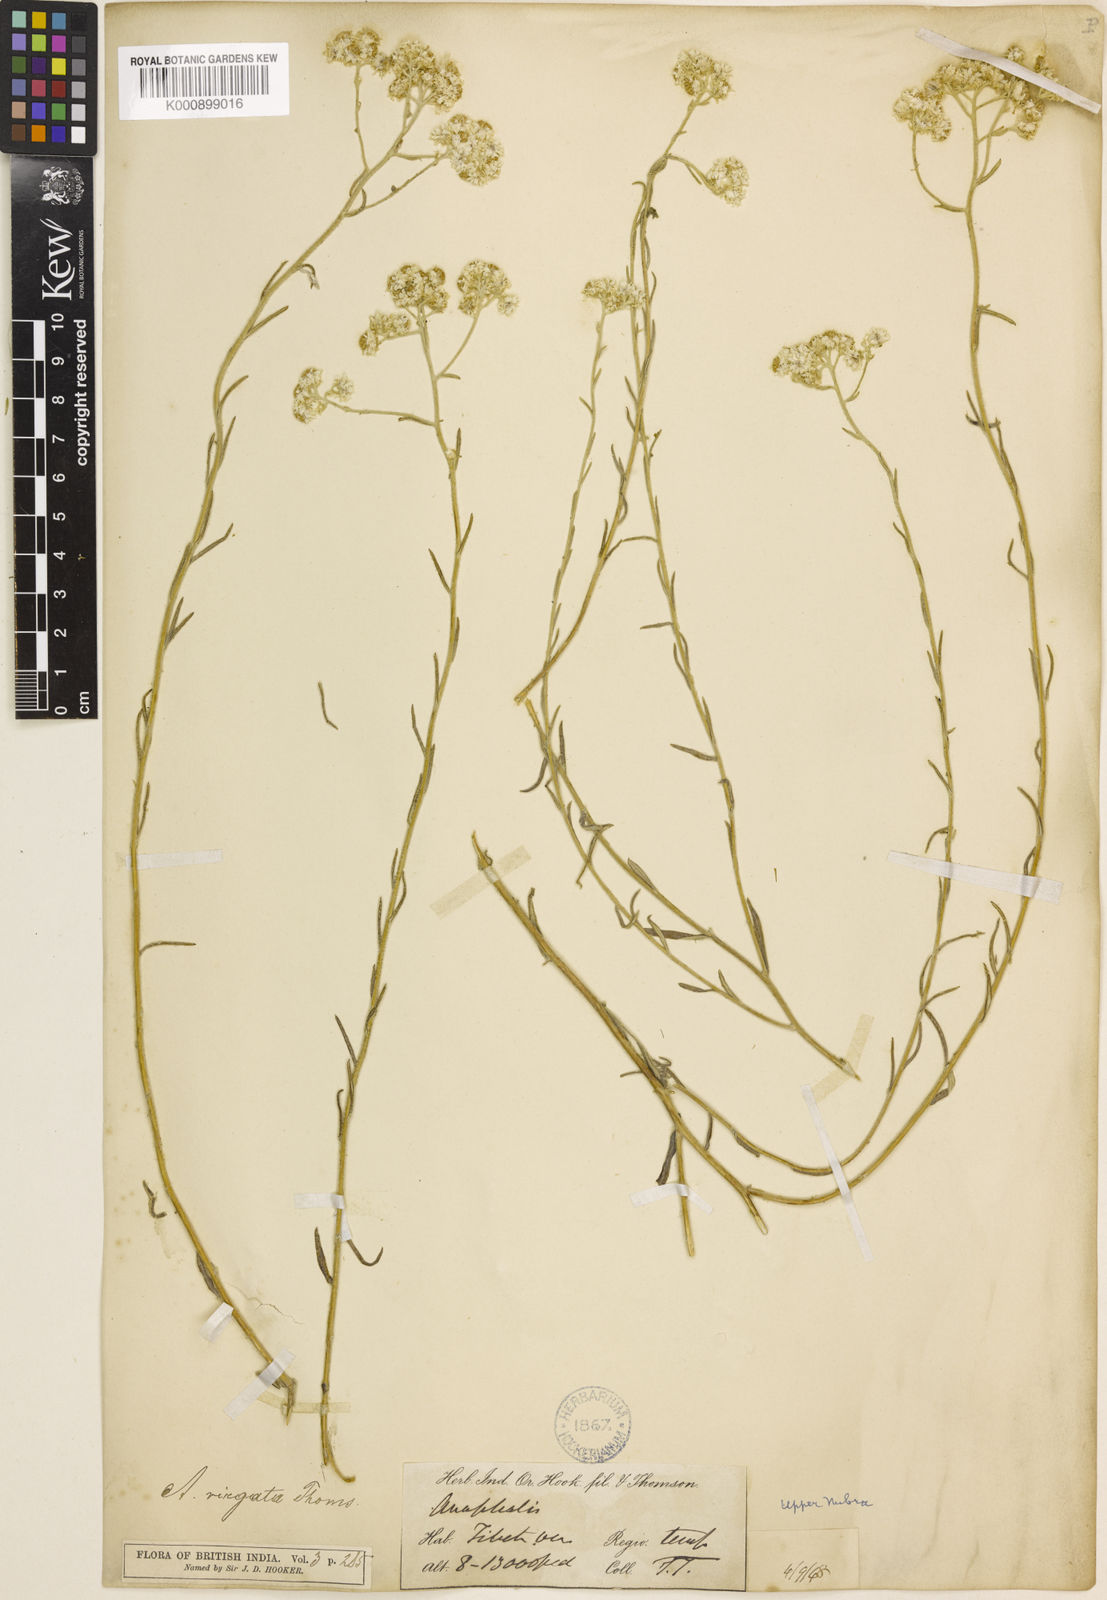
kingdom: Plantae
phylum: Tracheophyta
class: Magnoliopsida
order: Asterales
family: Asteraceae
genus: Anaphalis
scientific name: Anaphalis virgata
